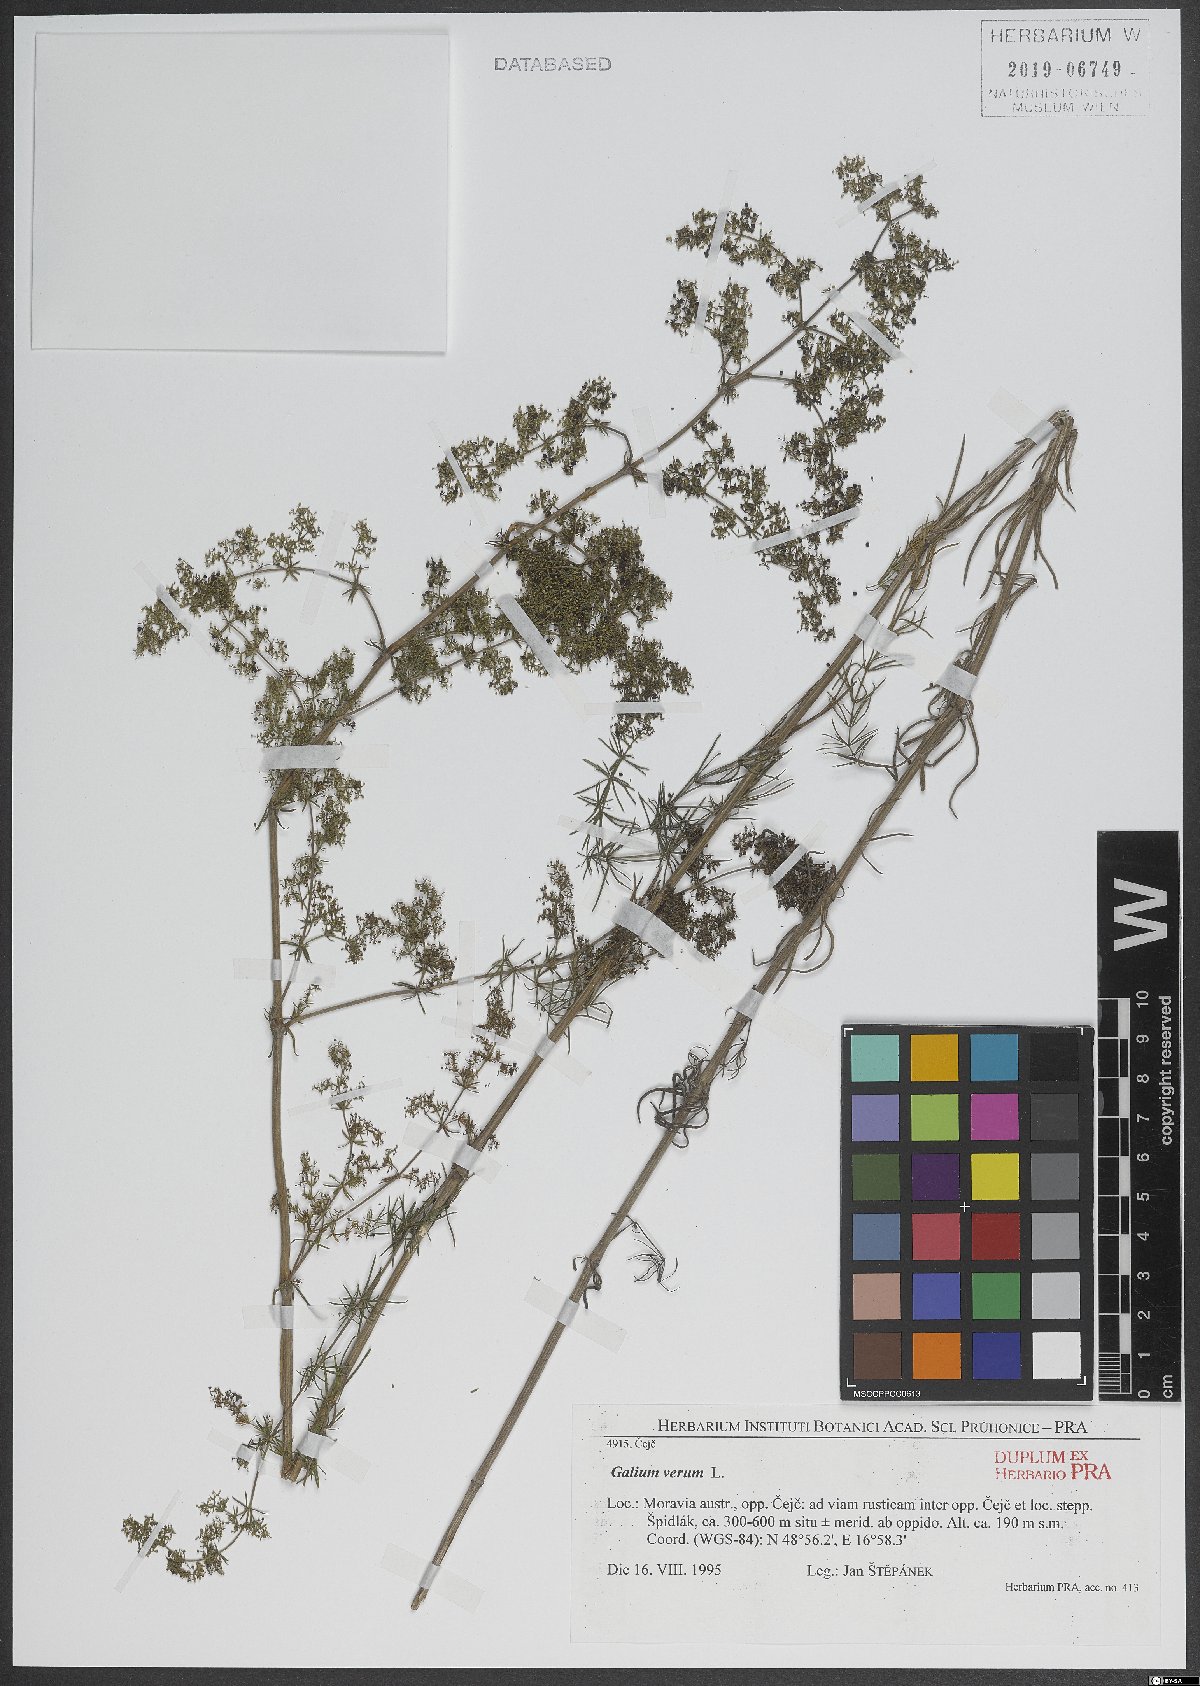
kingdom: Plantae
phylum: Tracheophyta
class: Magnoliopsida
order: Gentianales
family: Rubiaceae
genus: Galium
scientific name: Galium verum
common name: Lady's bedstraw
